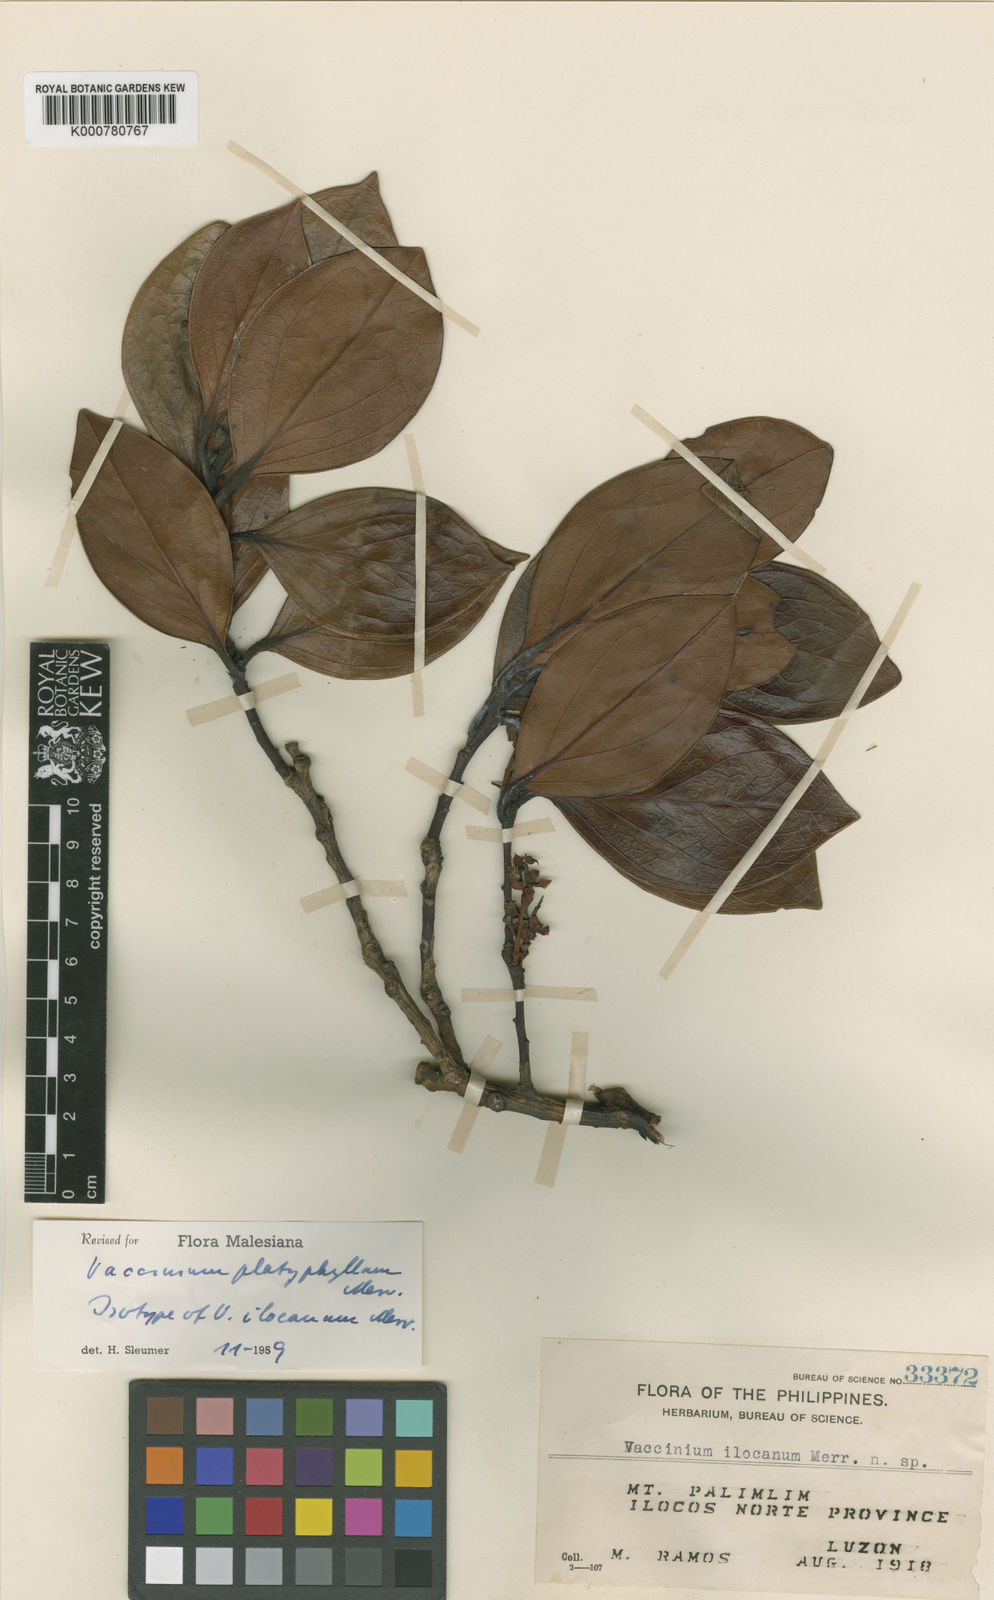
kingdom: Plantae
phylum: Tracheophyta
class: Magnoliopsida
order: Ericales
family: Ericaceae
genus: Vaccinium
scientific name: Vaccinium platyphyllum
